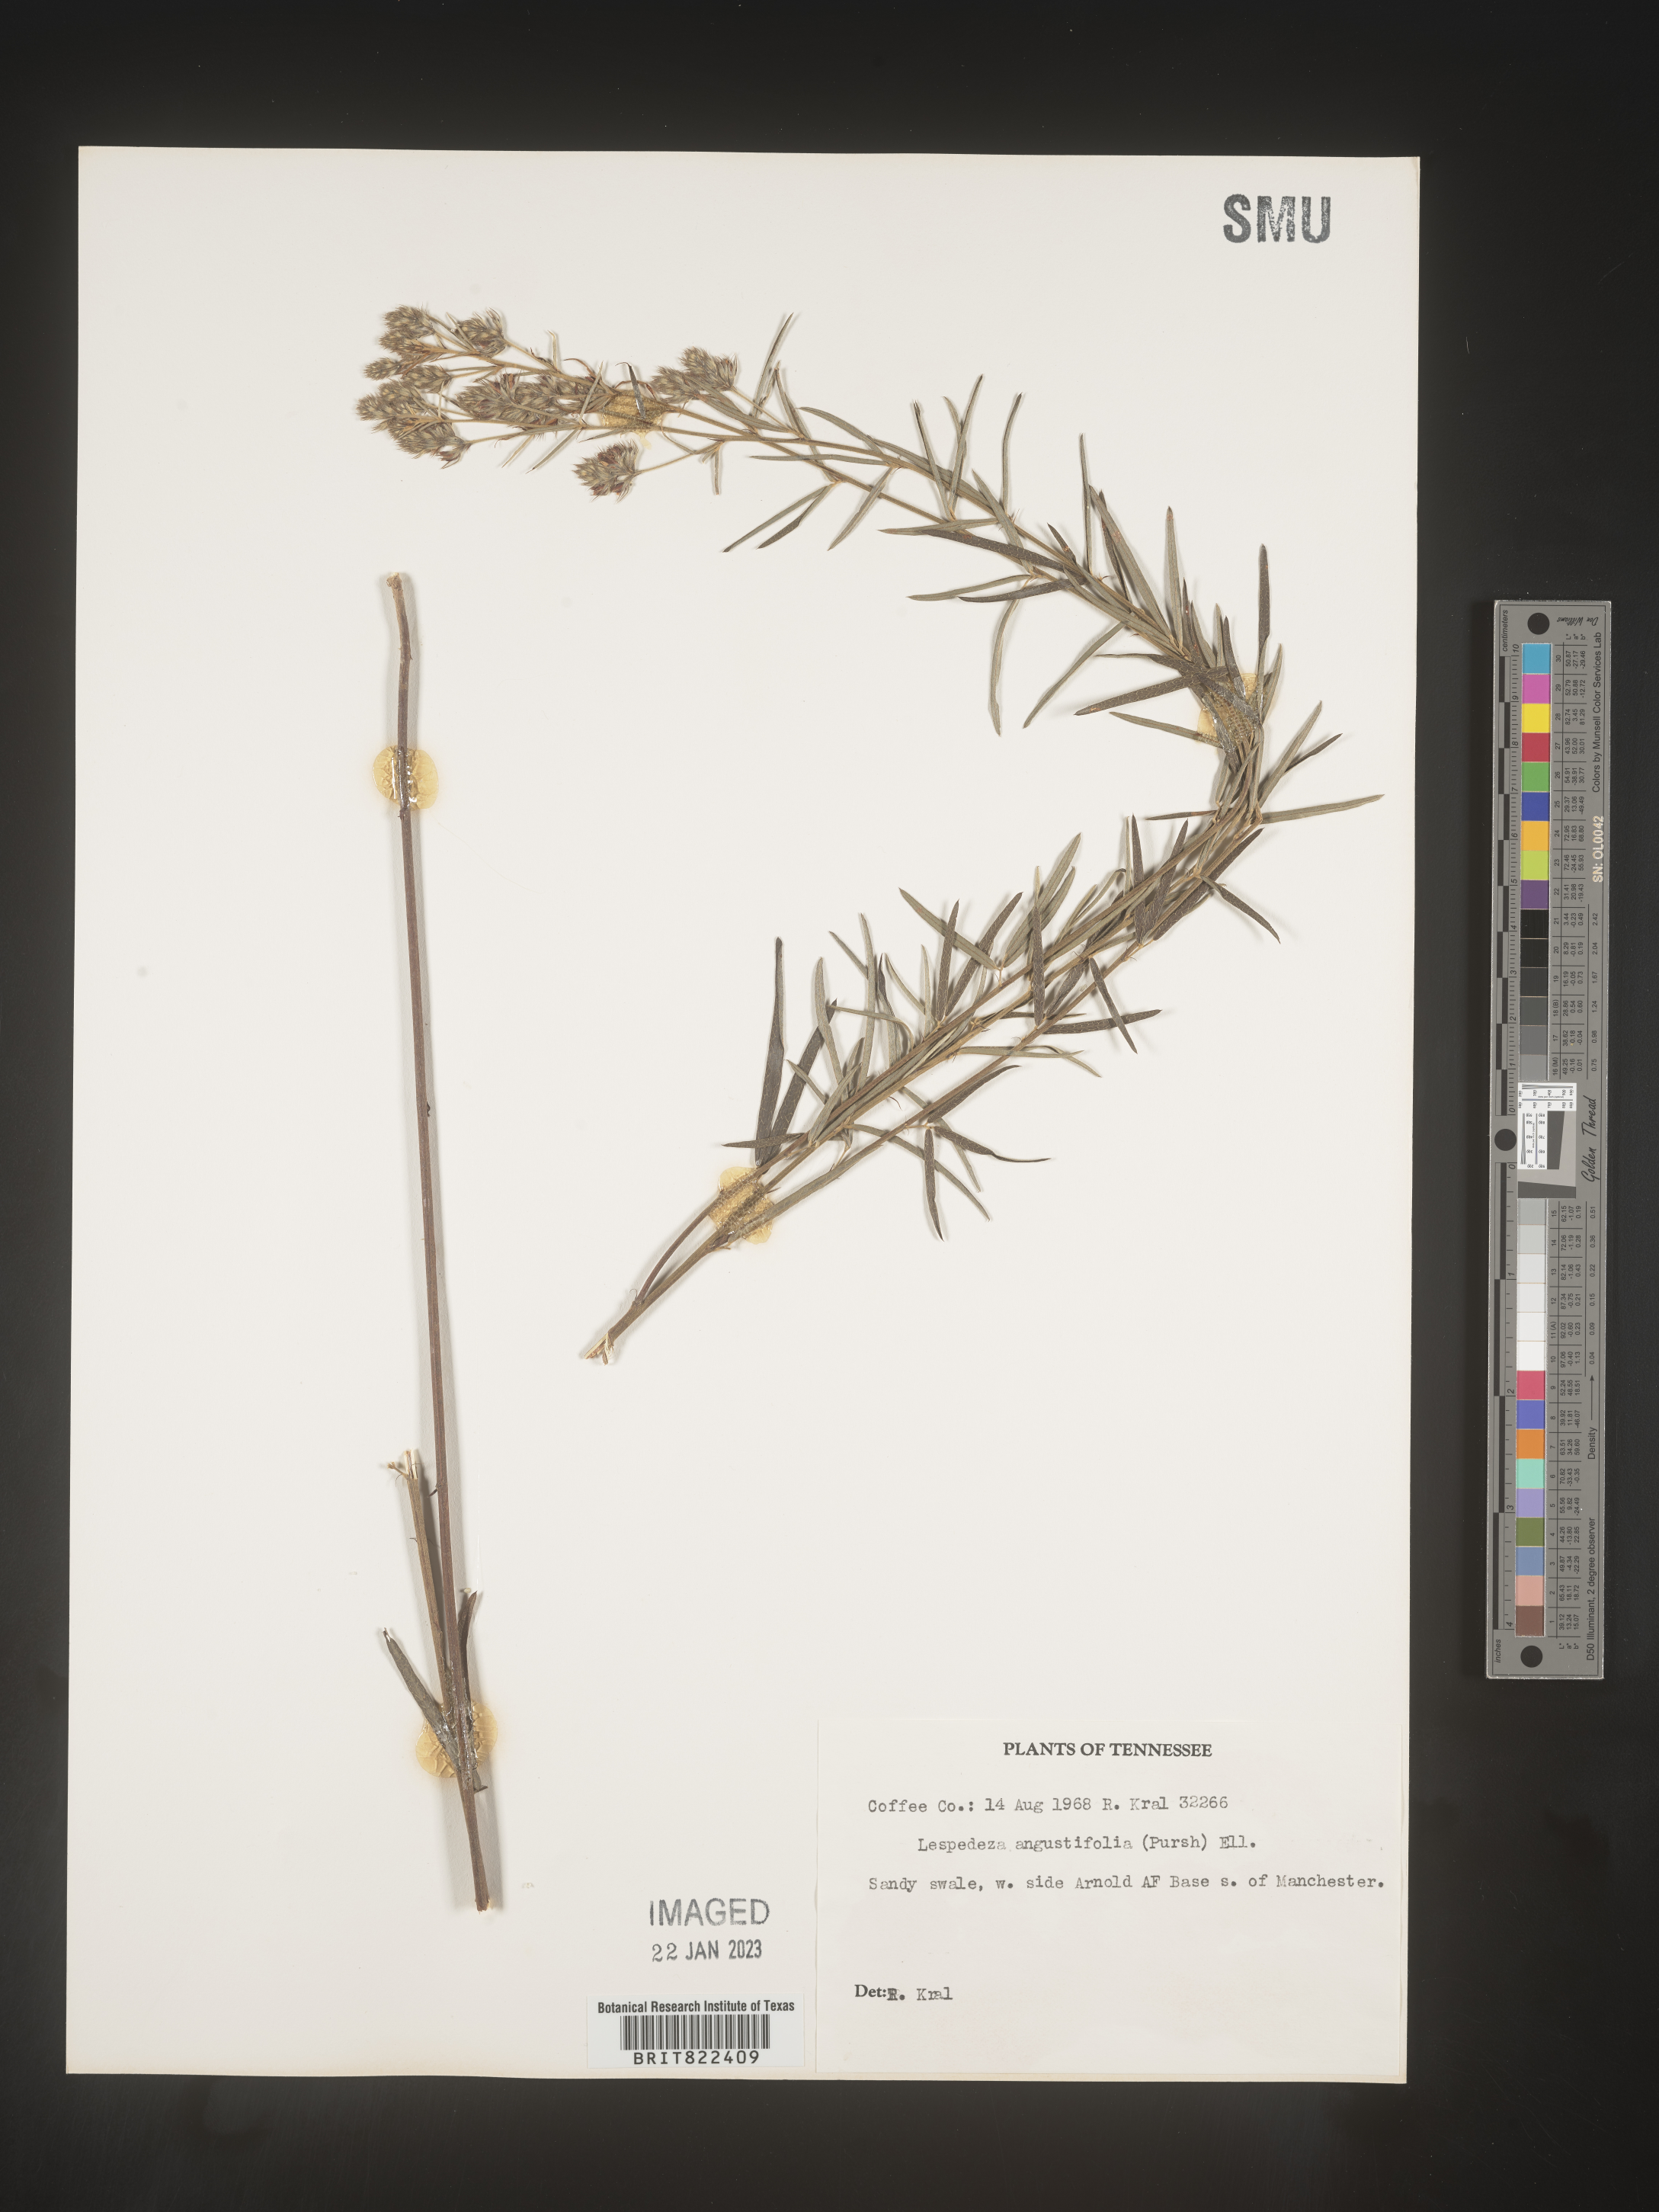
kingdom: Plantae
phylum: Tracheophyta
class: Magnoliopsida
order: Fabales
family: Fabaceae
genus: Lespedeza
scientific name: Lespedeza
